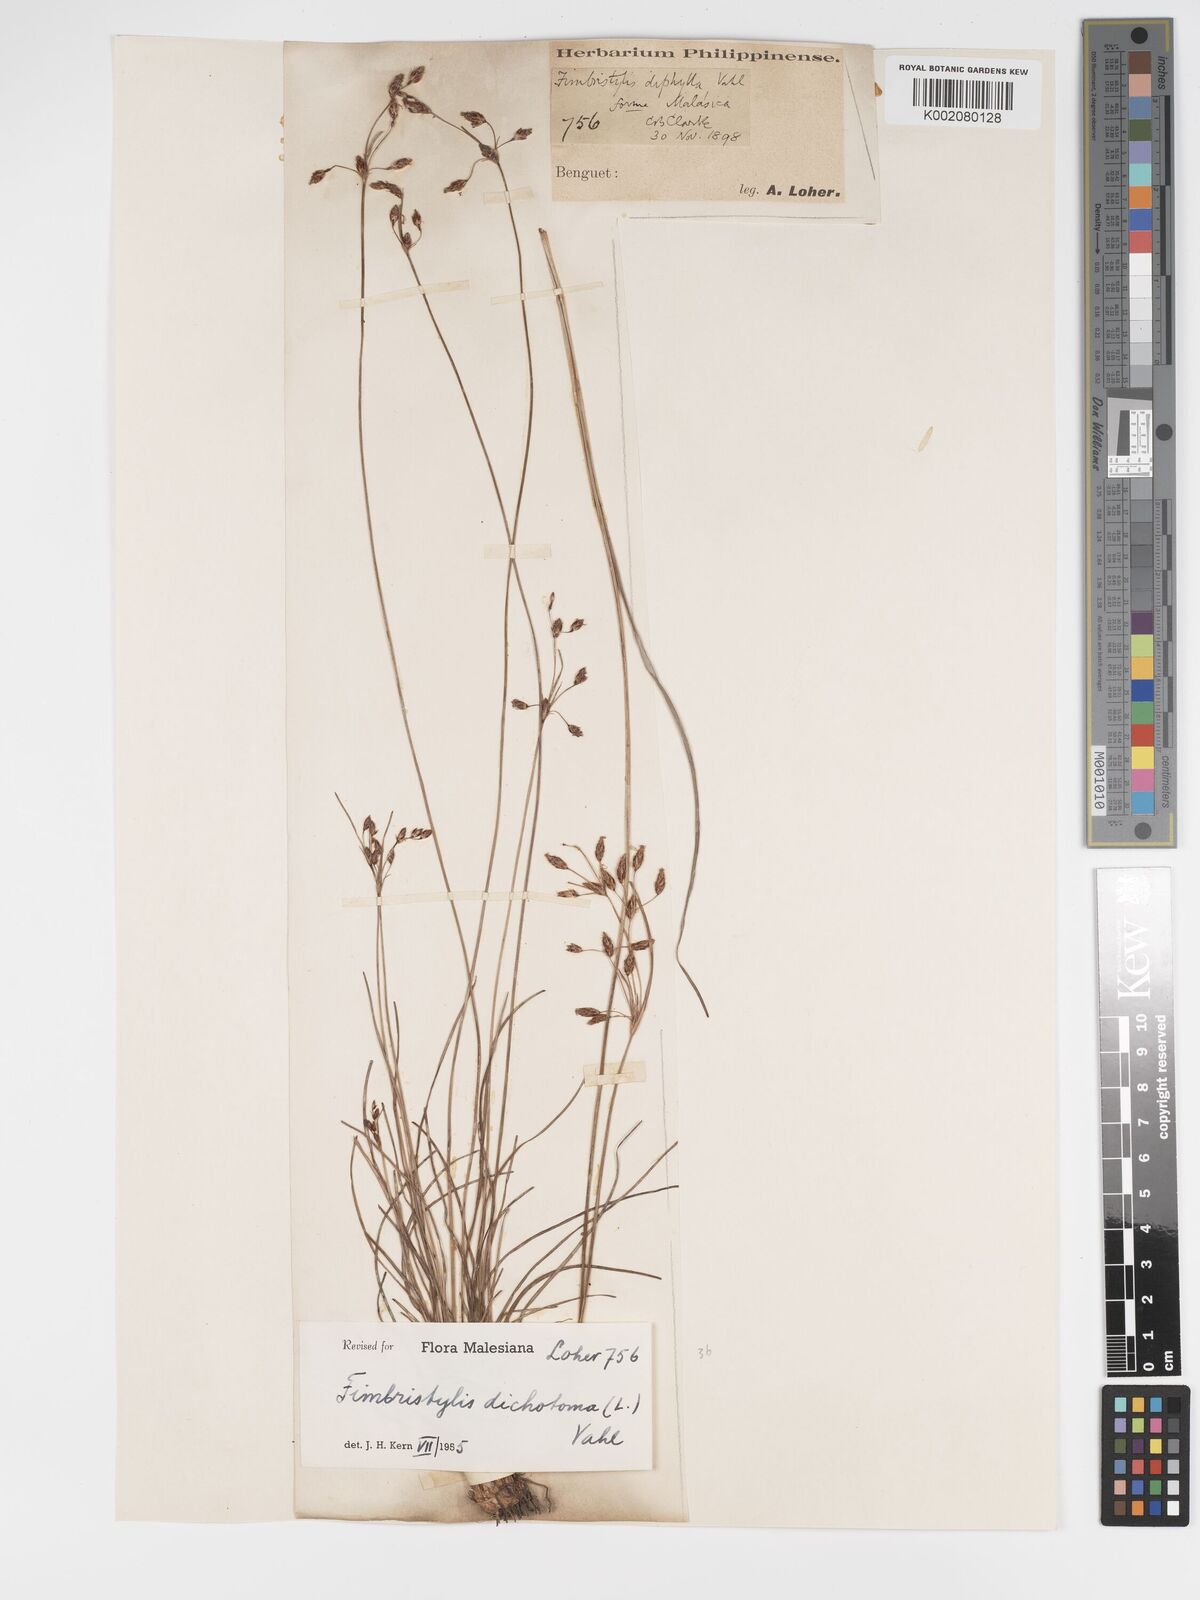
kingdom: Plantae
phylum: Tracheophyta
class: Liliopsida
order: Poales
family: Cyperaceae
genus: Fimbristylis
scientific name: Fimbristylis dichotoma
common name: Forked fimbry
